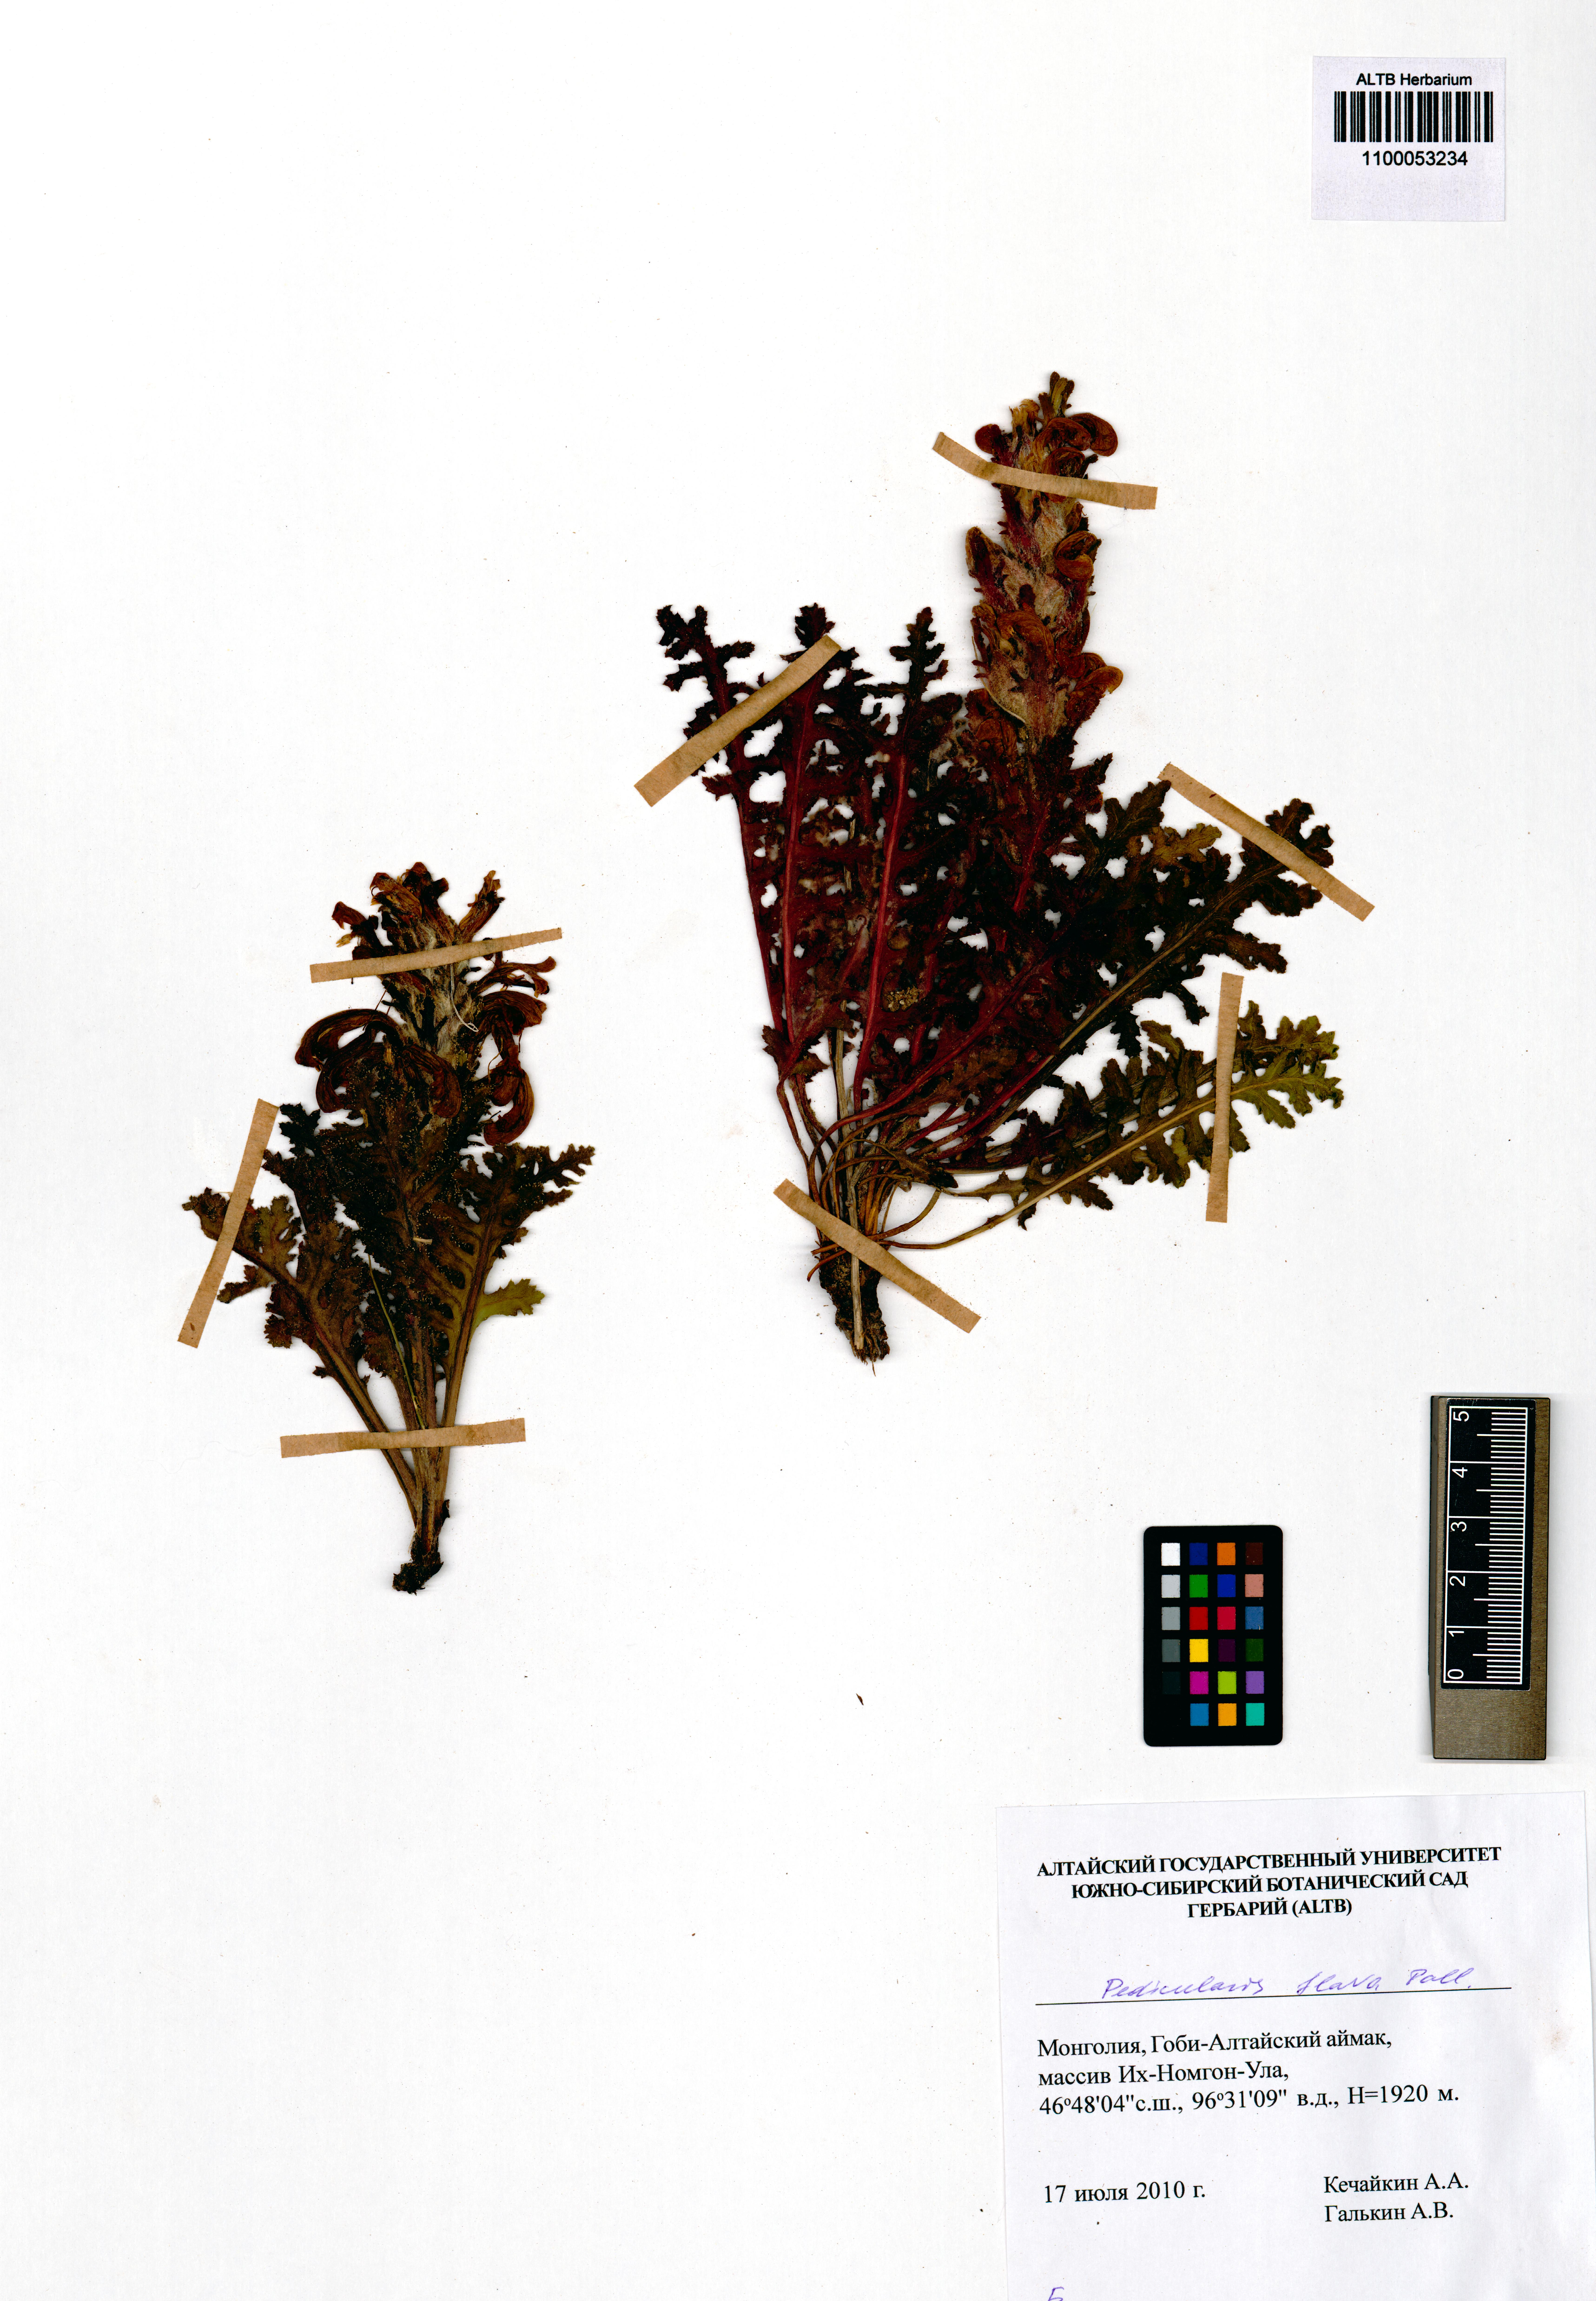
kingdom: Plantae
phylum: Tracheophyta
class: Magnoliopsida
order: Lamiales
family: Orobanchaceae
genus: Pedicularis
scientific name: Pedicularis flava
